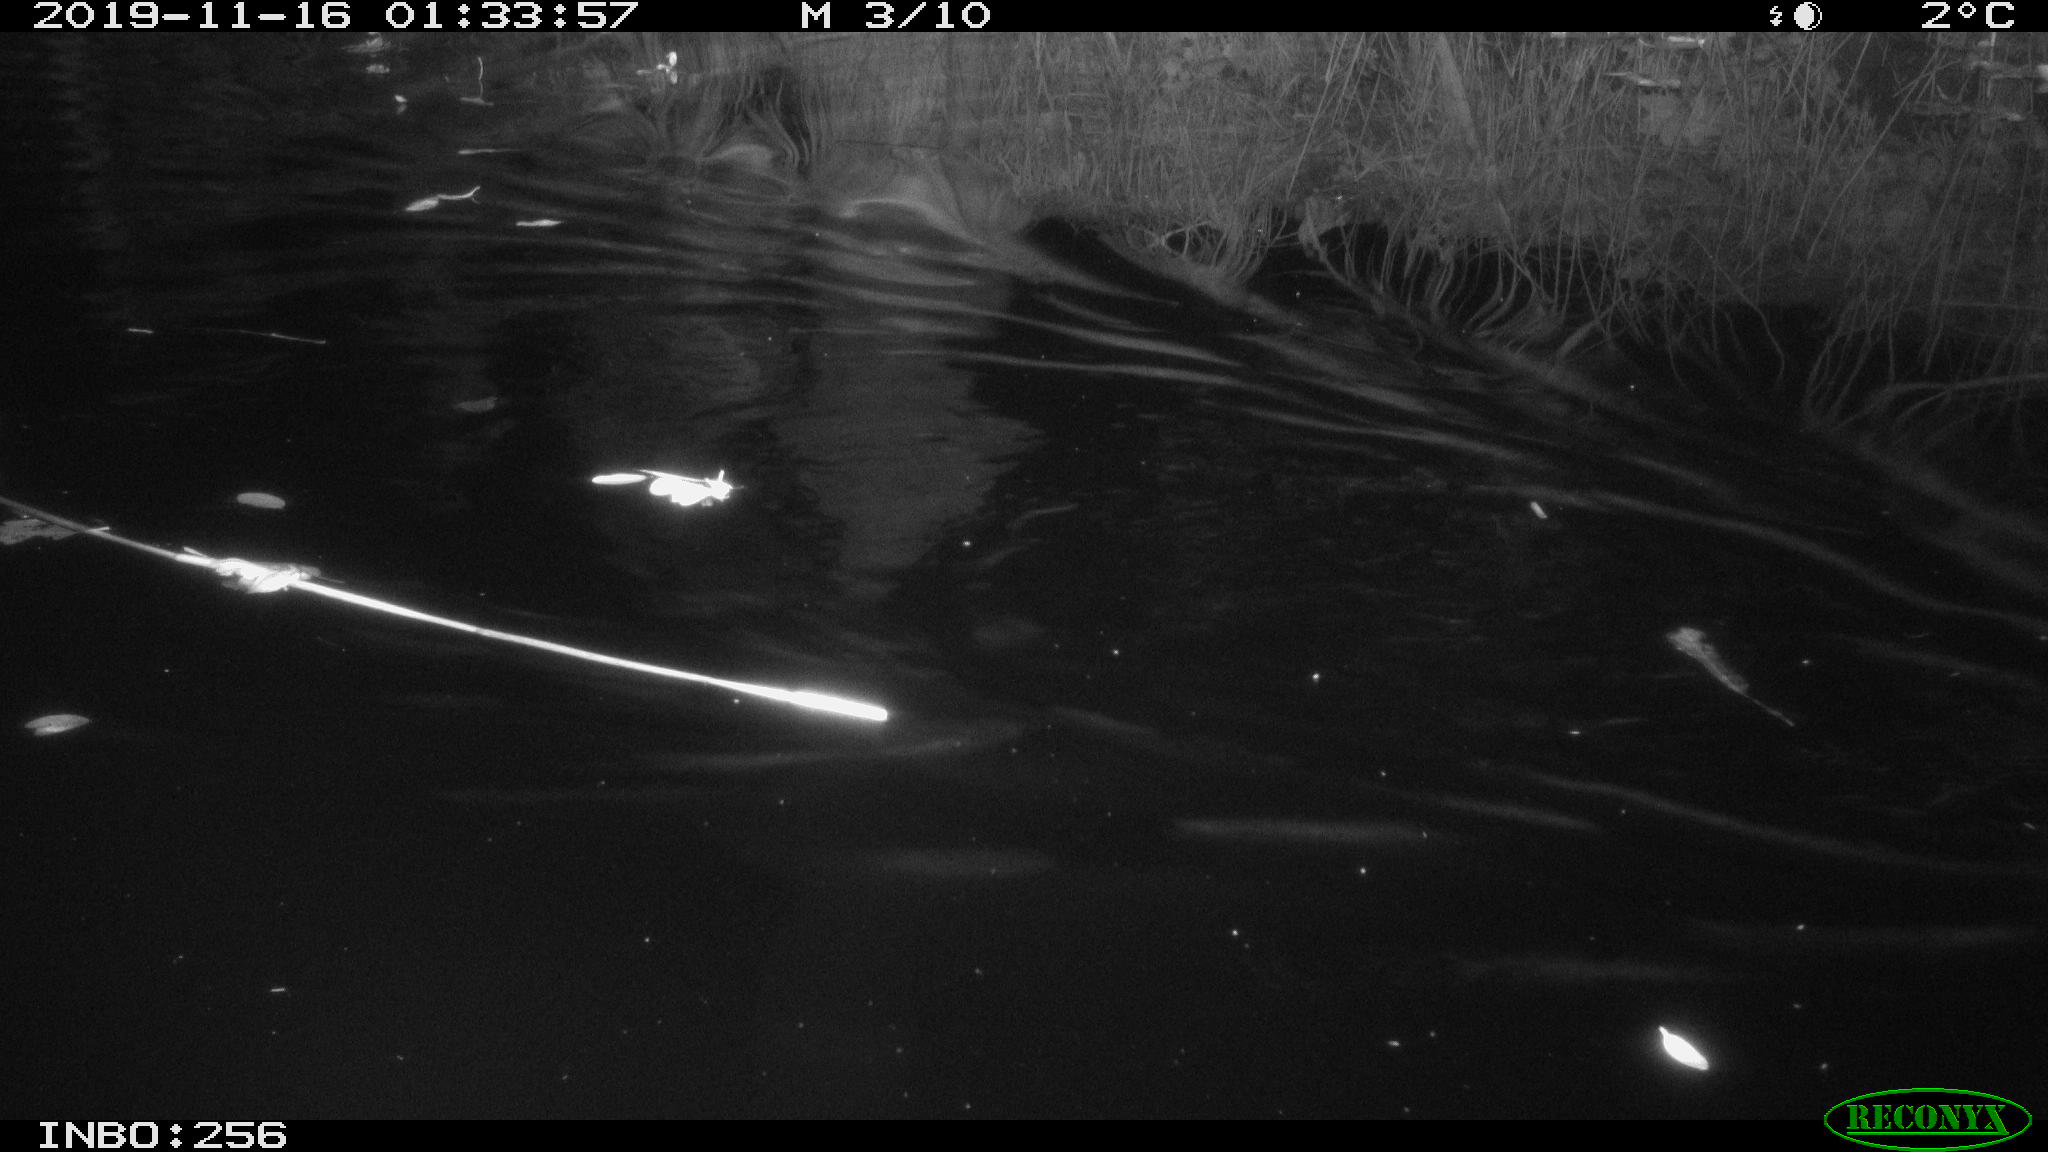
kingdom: Animalia
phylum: Chordata
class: Mammalia
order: Rodentia
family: Cricetidae
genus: Ondatra
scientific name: Ondatra zibethicus
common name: Muskrat
